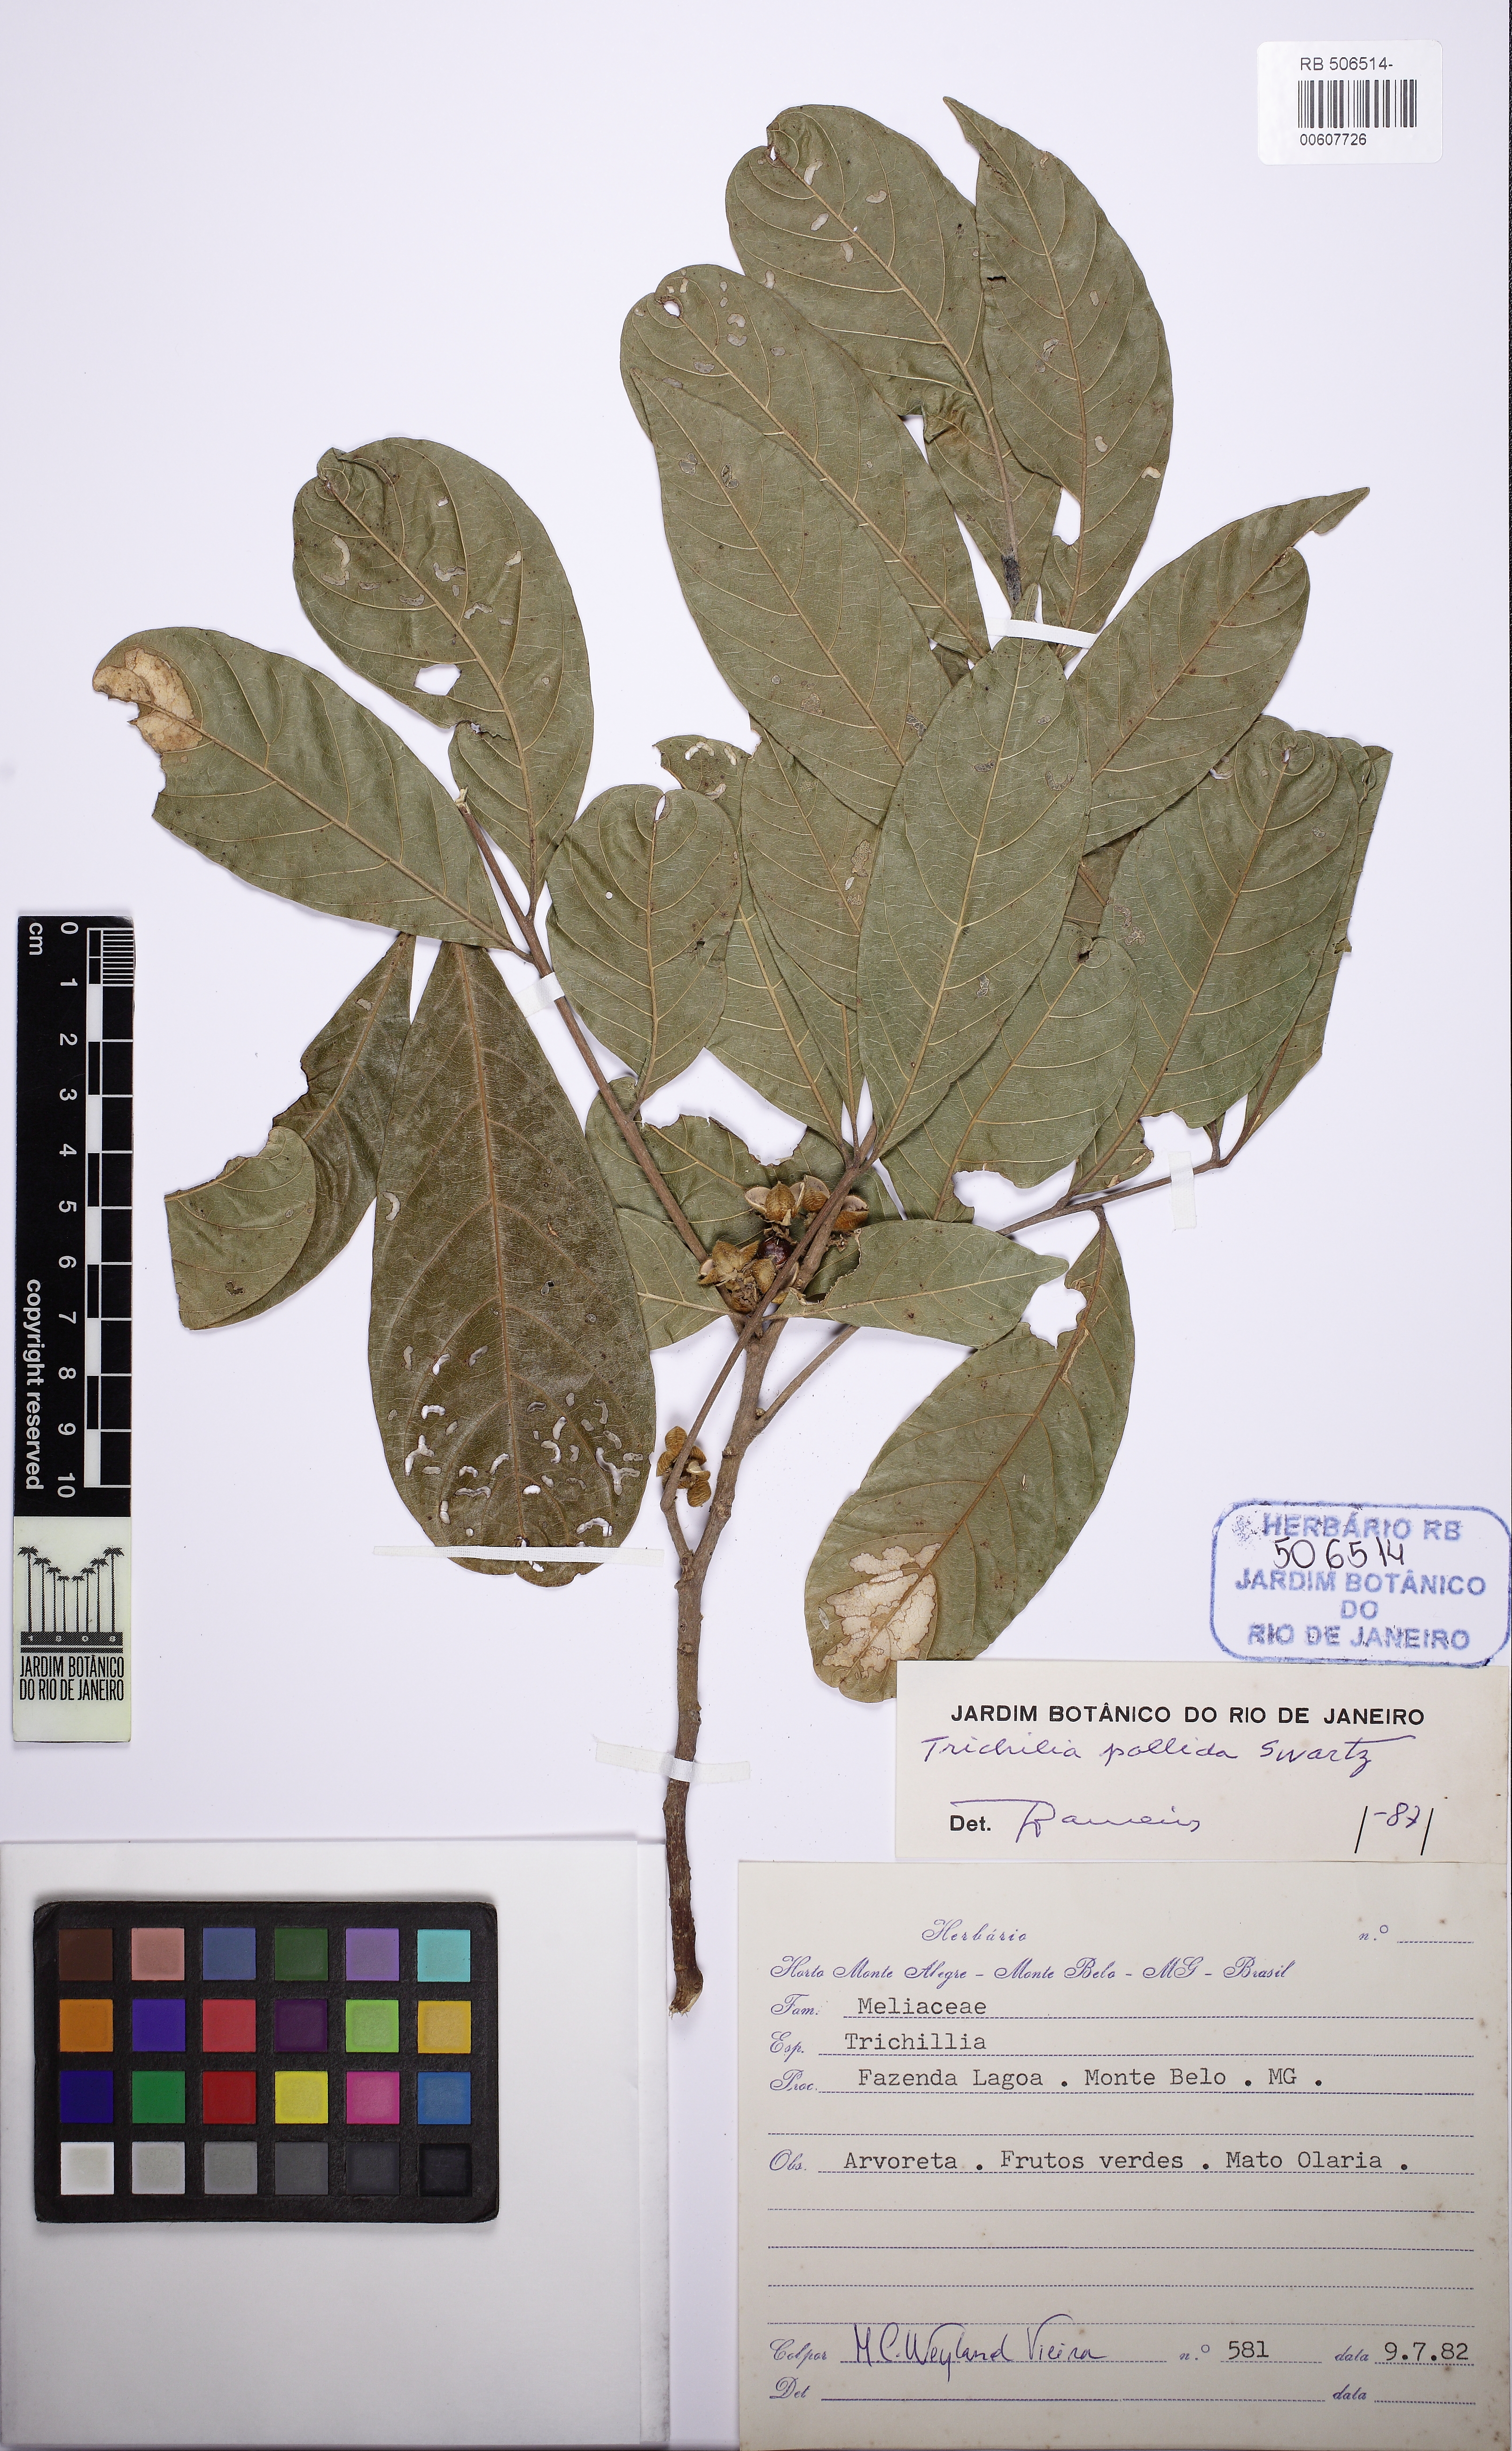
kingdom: Plantae
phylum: Tracheophyta
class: Magnoliopsida
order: Sapindales
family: Meliaceae
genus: Trichilia
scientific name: Trichilia pallida
